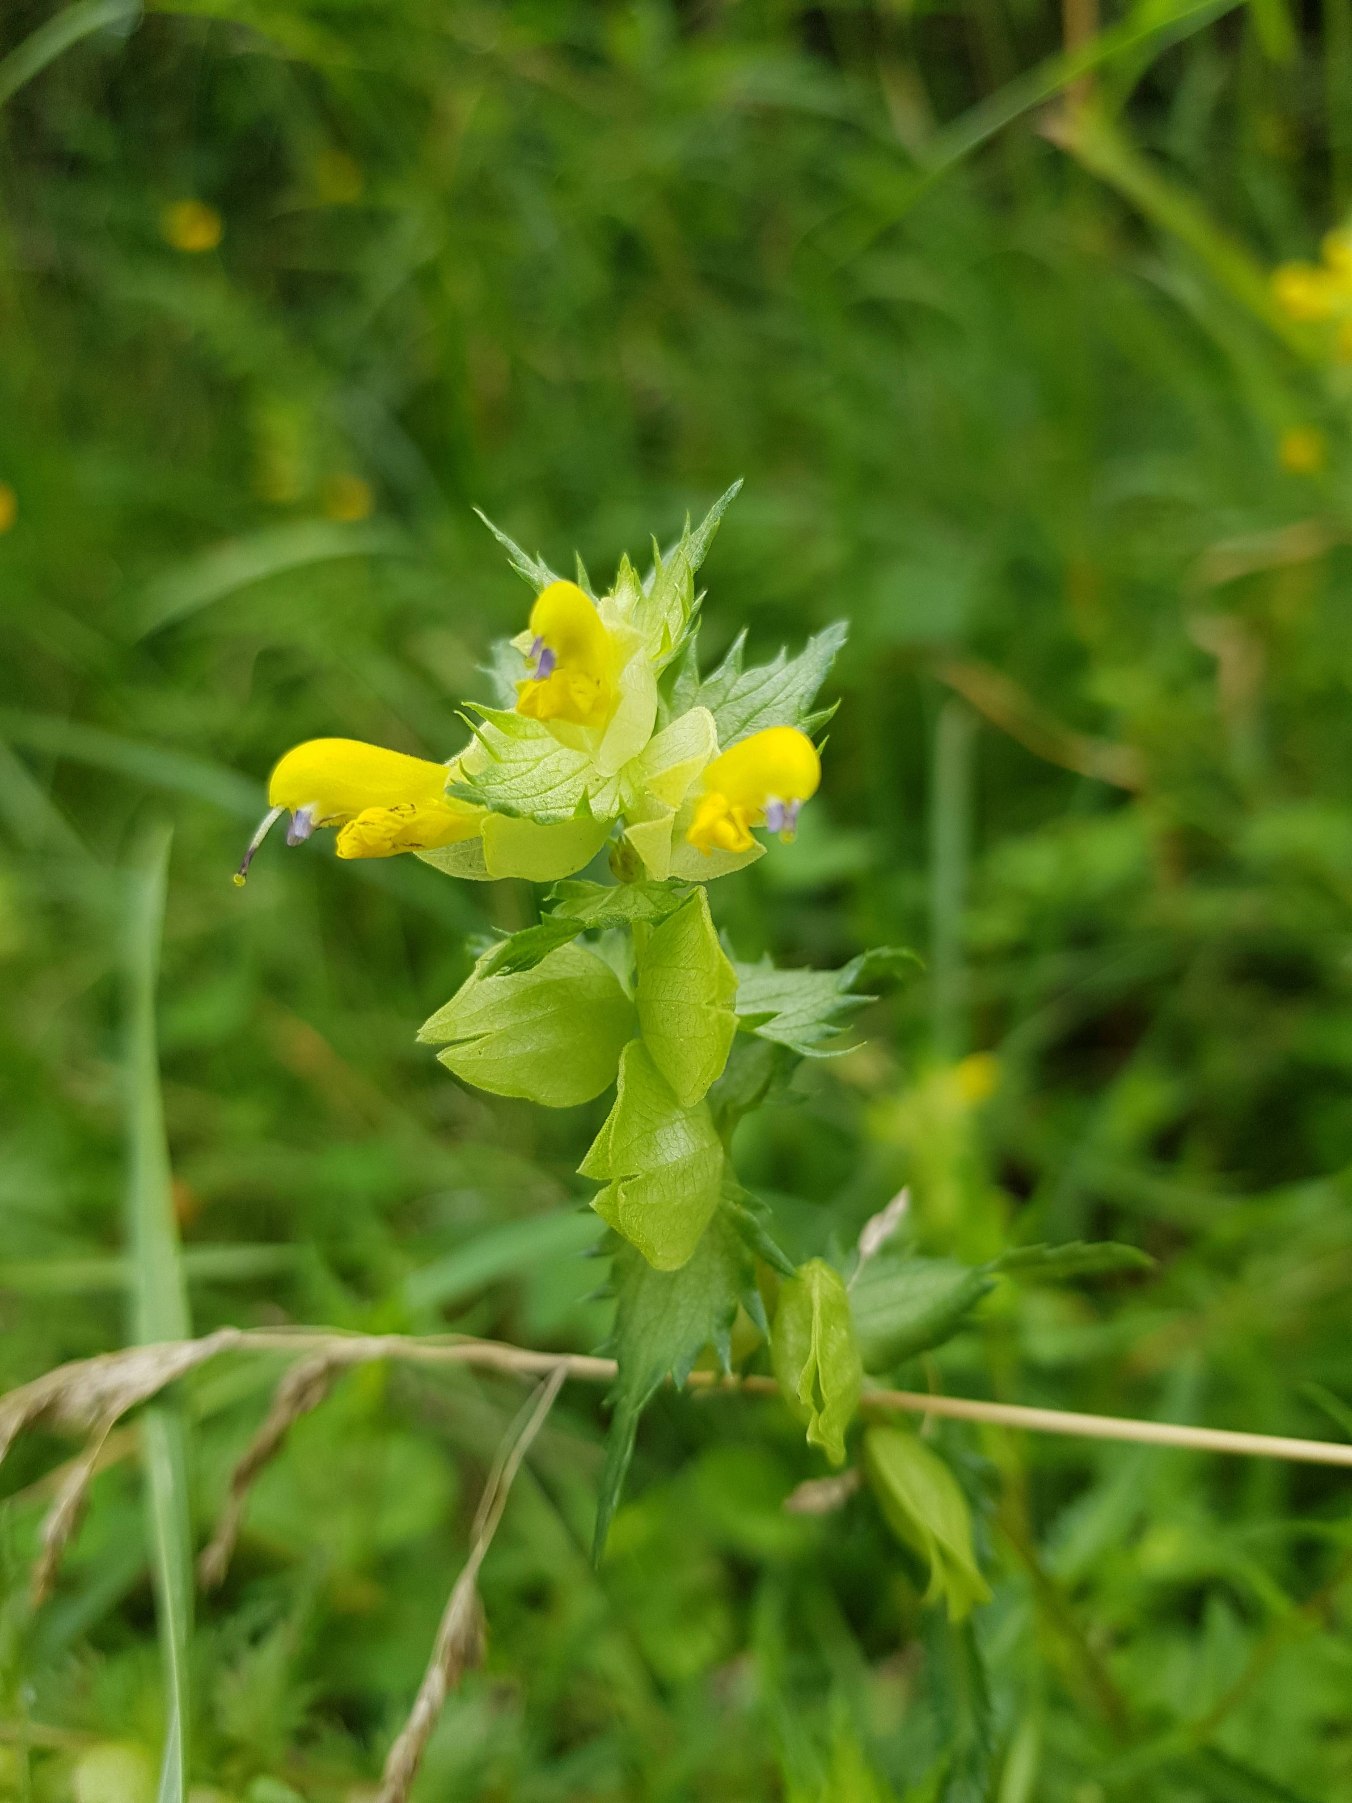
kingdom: Plantae
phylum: Tracheophyta
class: Magnoliopsida
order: Lamiales
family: Orobanchaceae
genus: Rhinanthus
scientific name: Rhinanthus
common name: Stor skjaller
